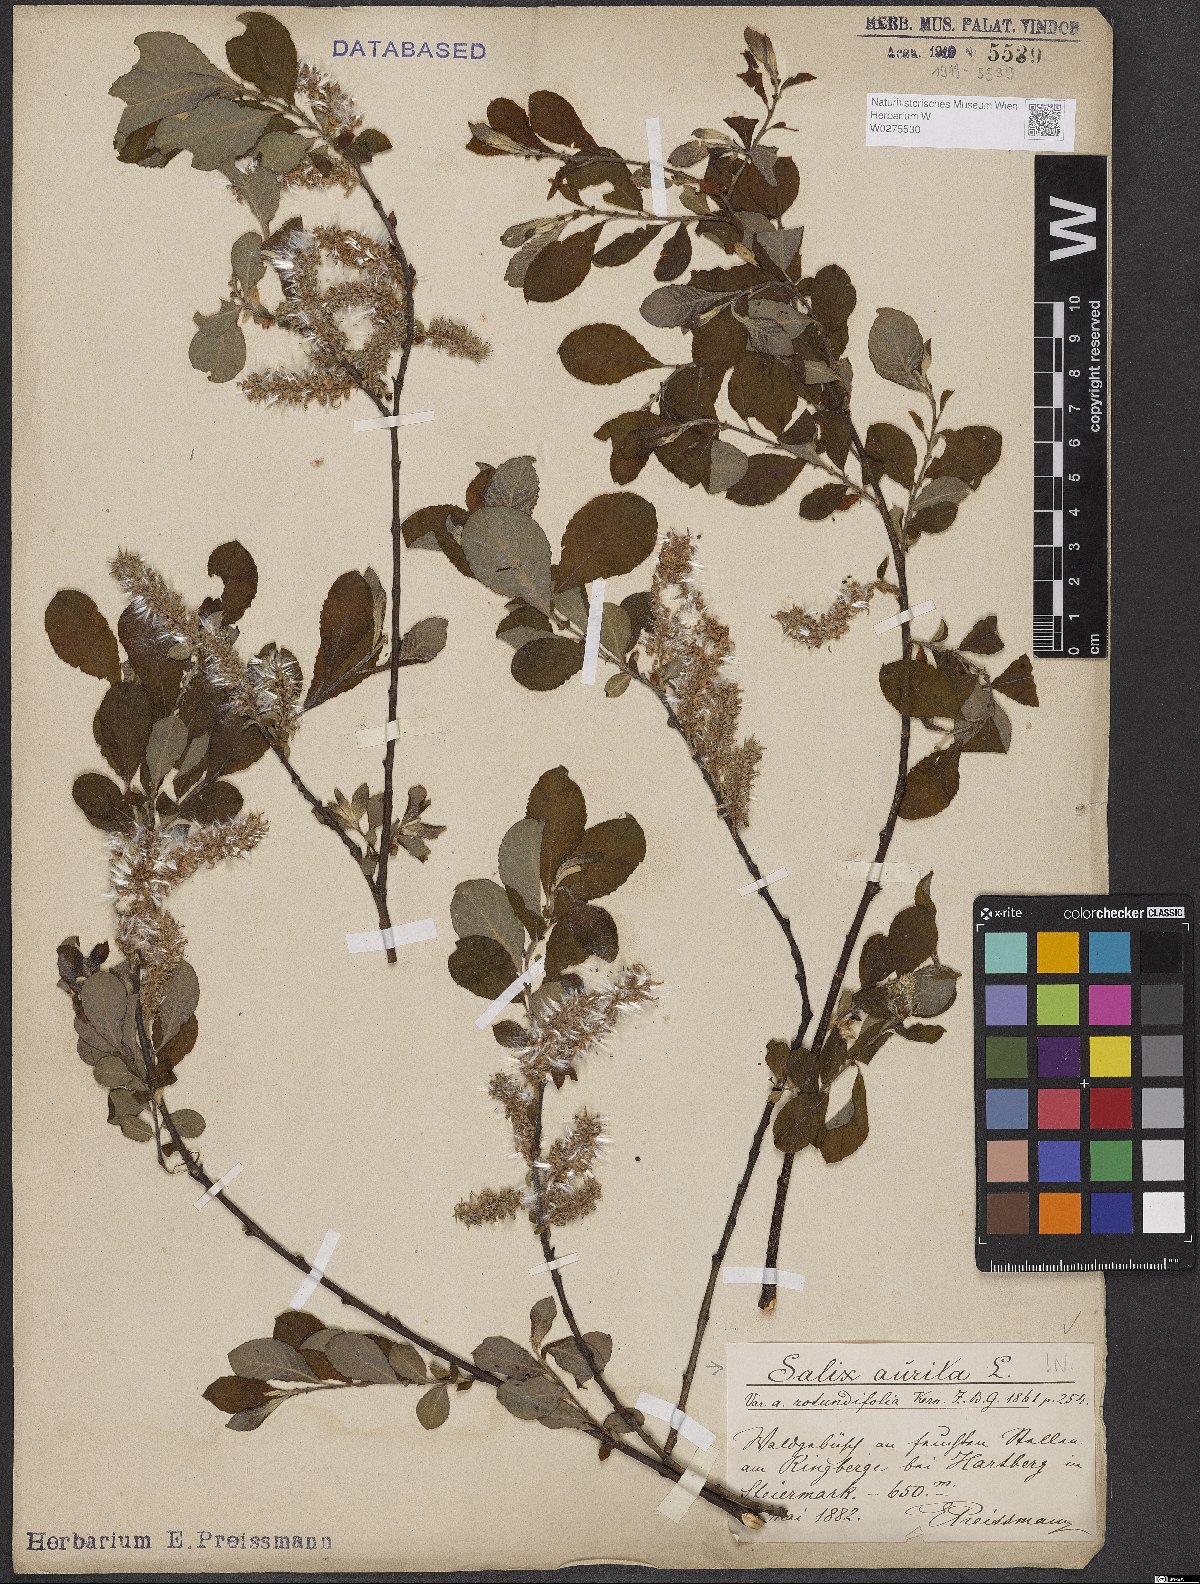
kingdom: Plantae
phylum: Tracheophyta
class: Magnoliopsida
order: Malpighiales
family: Salicaceae
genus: Salix
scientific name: Salix aurita
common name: Eared willow
